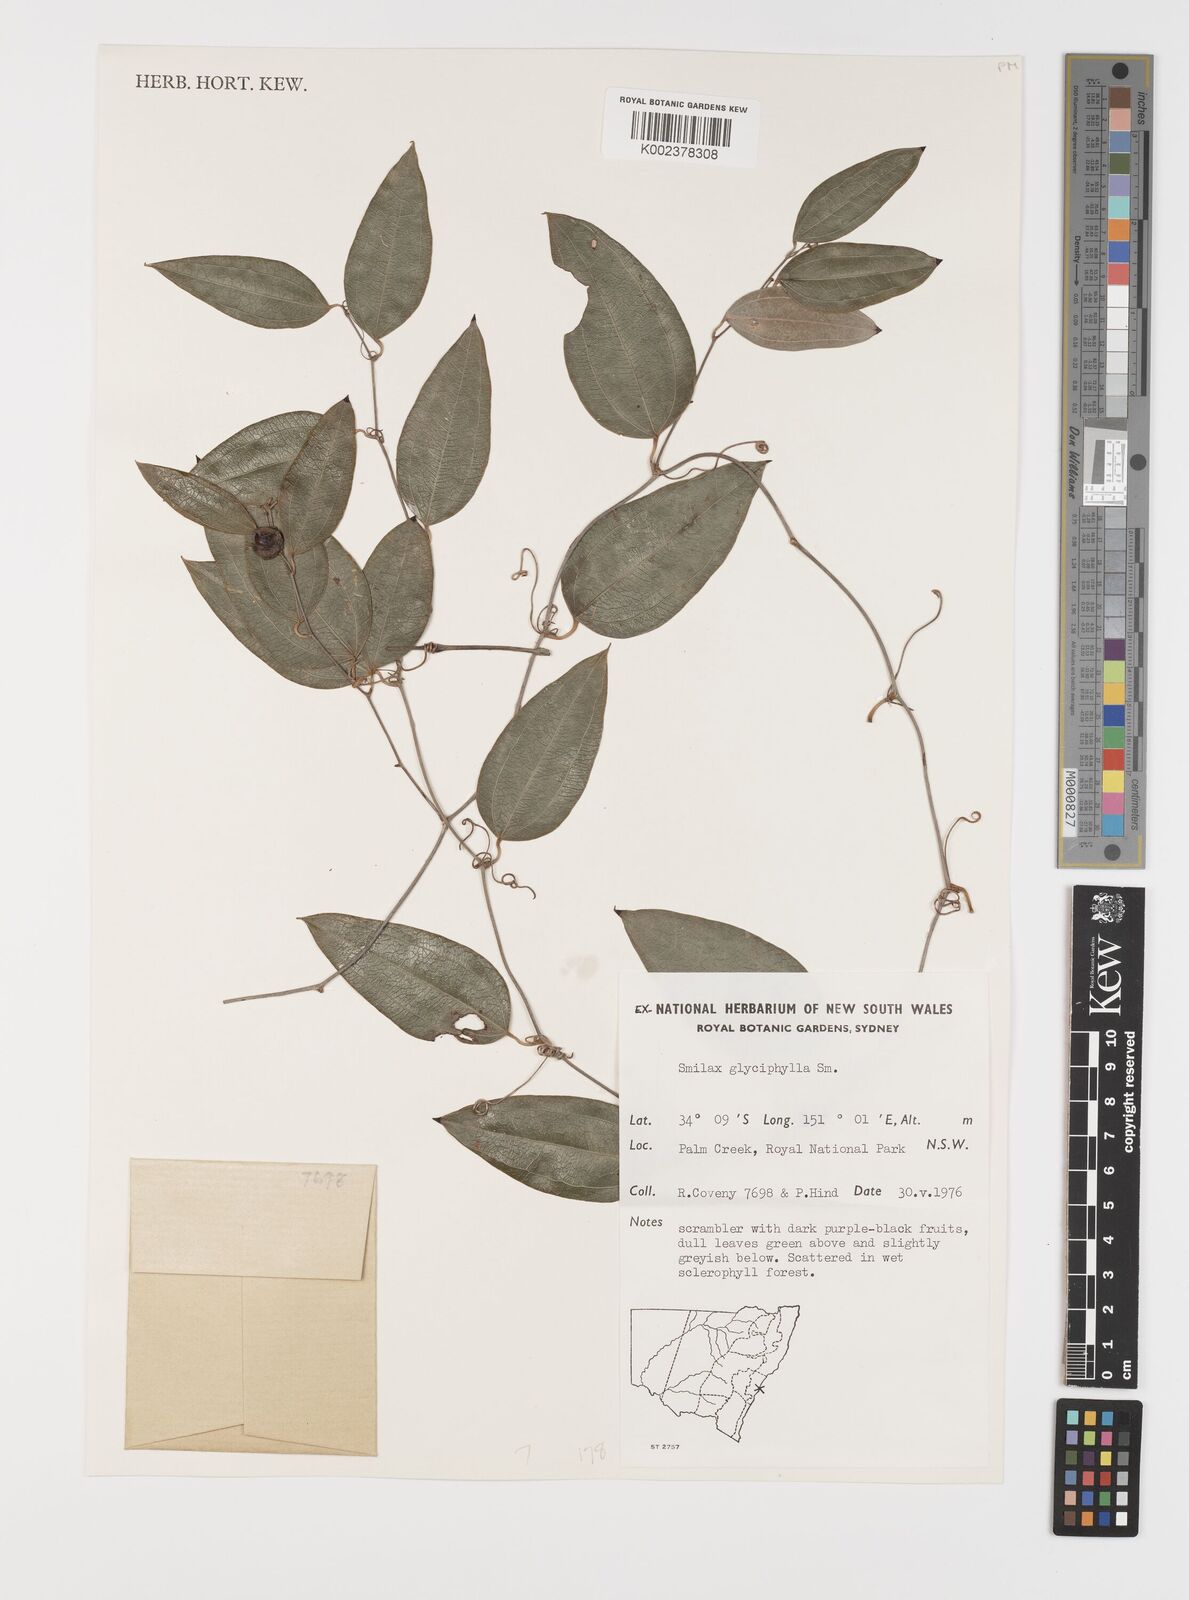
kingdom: Plantae
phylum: Tracheophyta
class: Liliopsida
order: Liliales
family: Smilacaceae
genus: Smilax
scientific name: Smilax leucophylla
